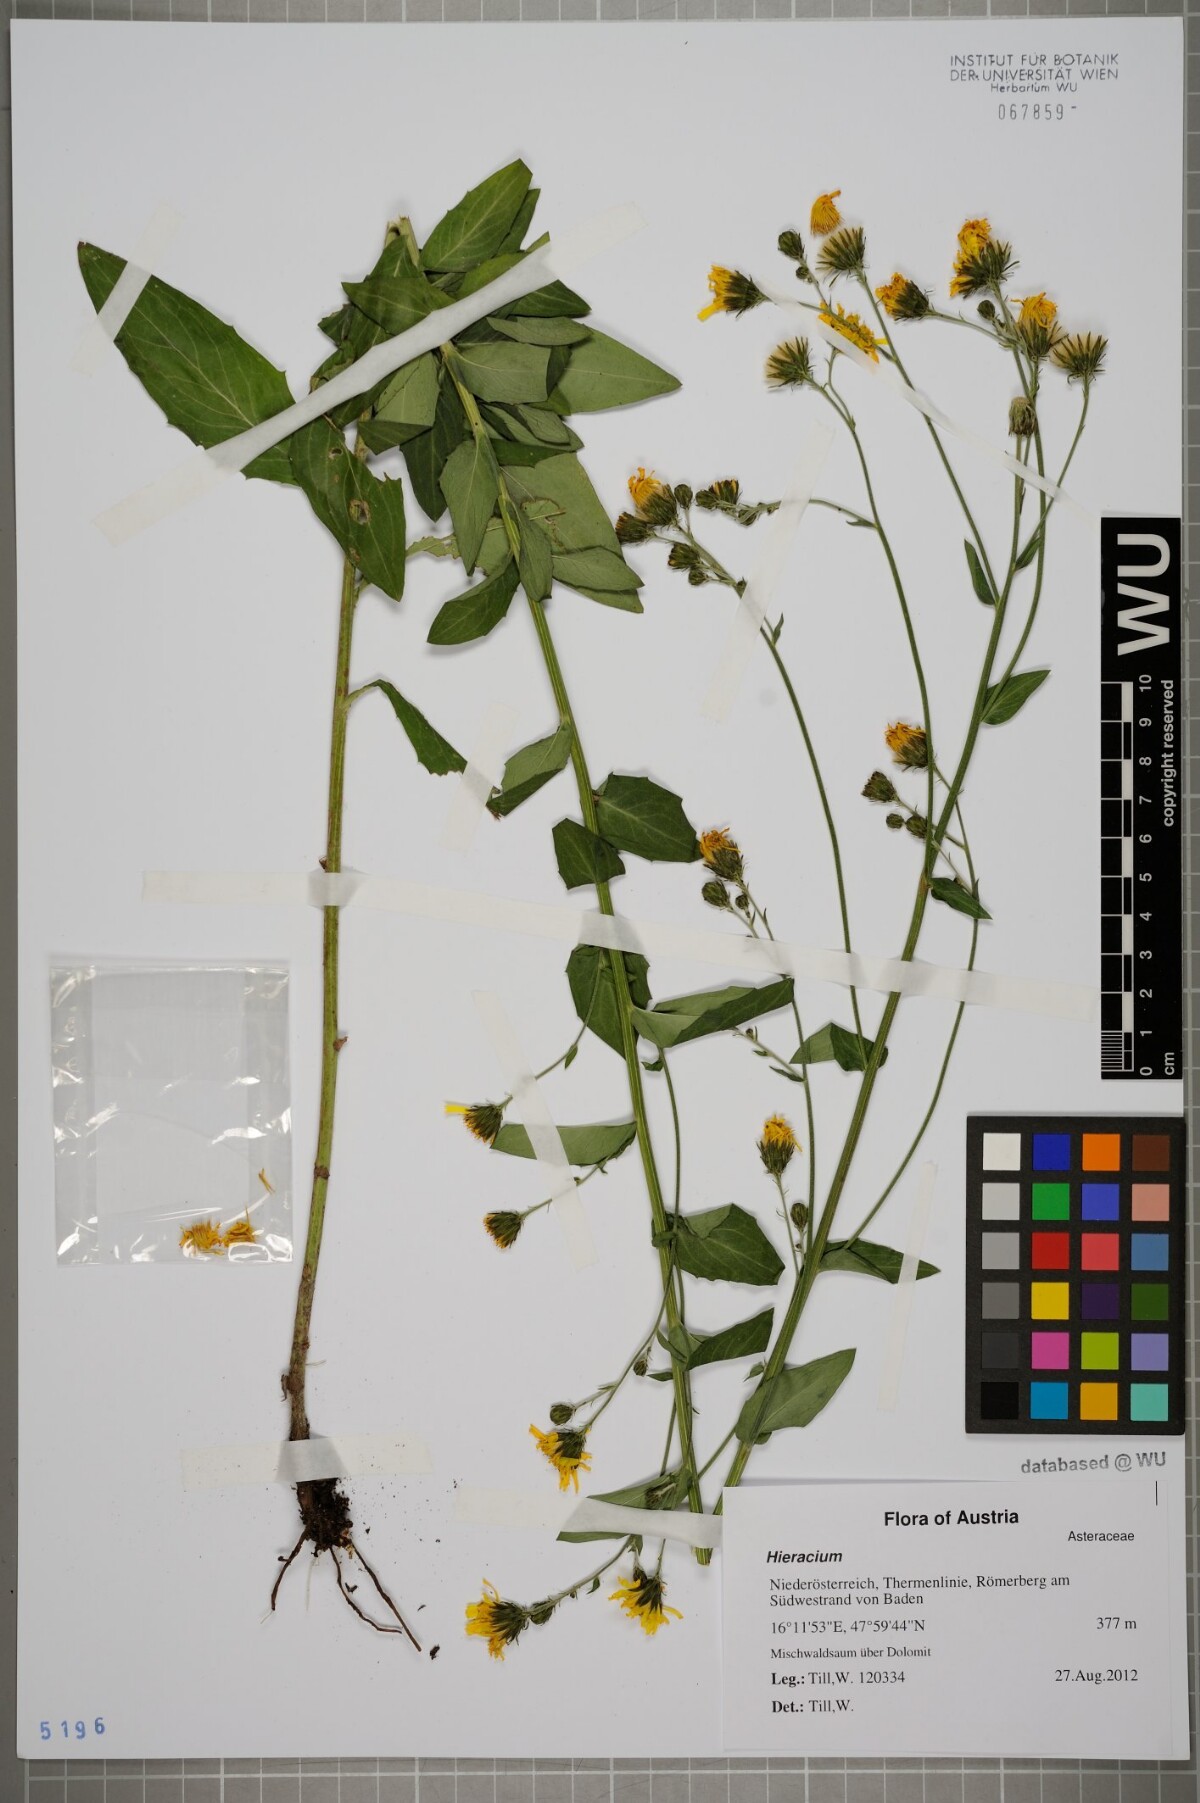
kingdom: Plantae
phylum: Tracheophyta
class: Magnoliopsida
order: Asterales
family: Asteraceae
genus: Hieracium
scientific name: Hieracium sabaudum
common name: New england hawkweed
